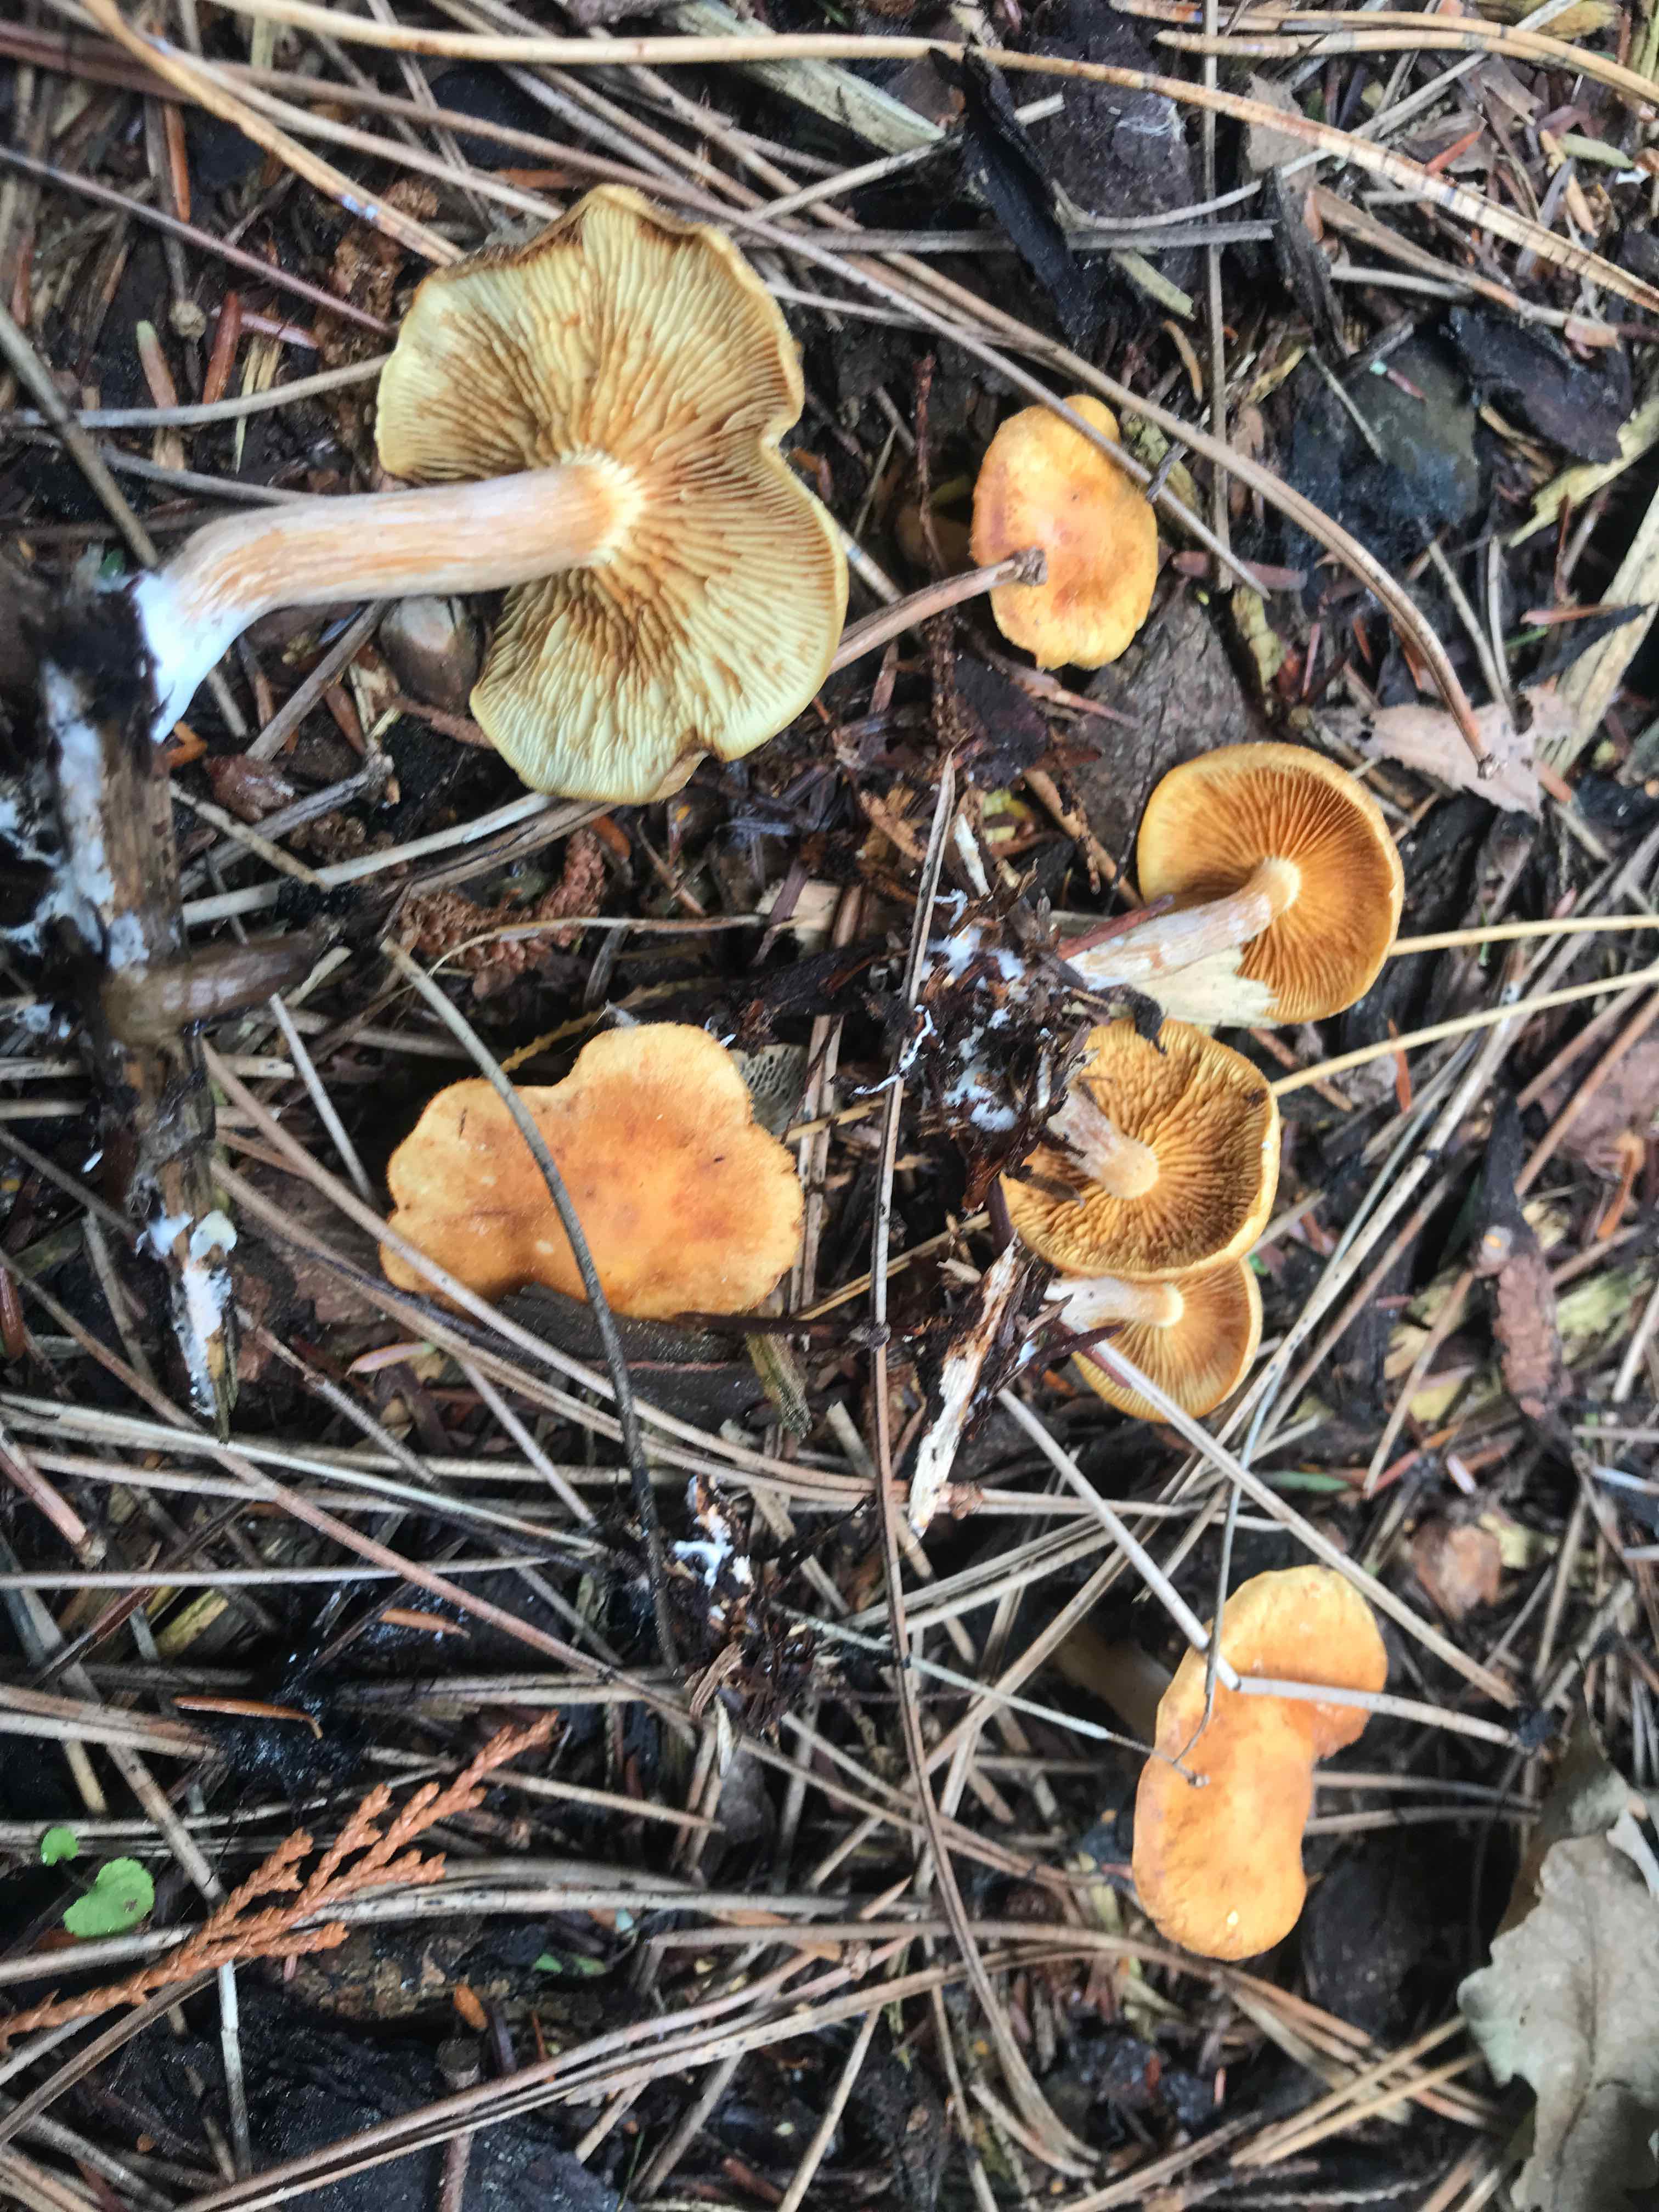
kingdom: Fungi
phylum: Basidiomycota
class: Agaricomycetes
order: Agaricales
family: Hymenogastraceae
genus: Gymnopilus
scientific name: Gymnopilus penetrans
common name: plettet flammehat
